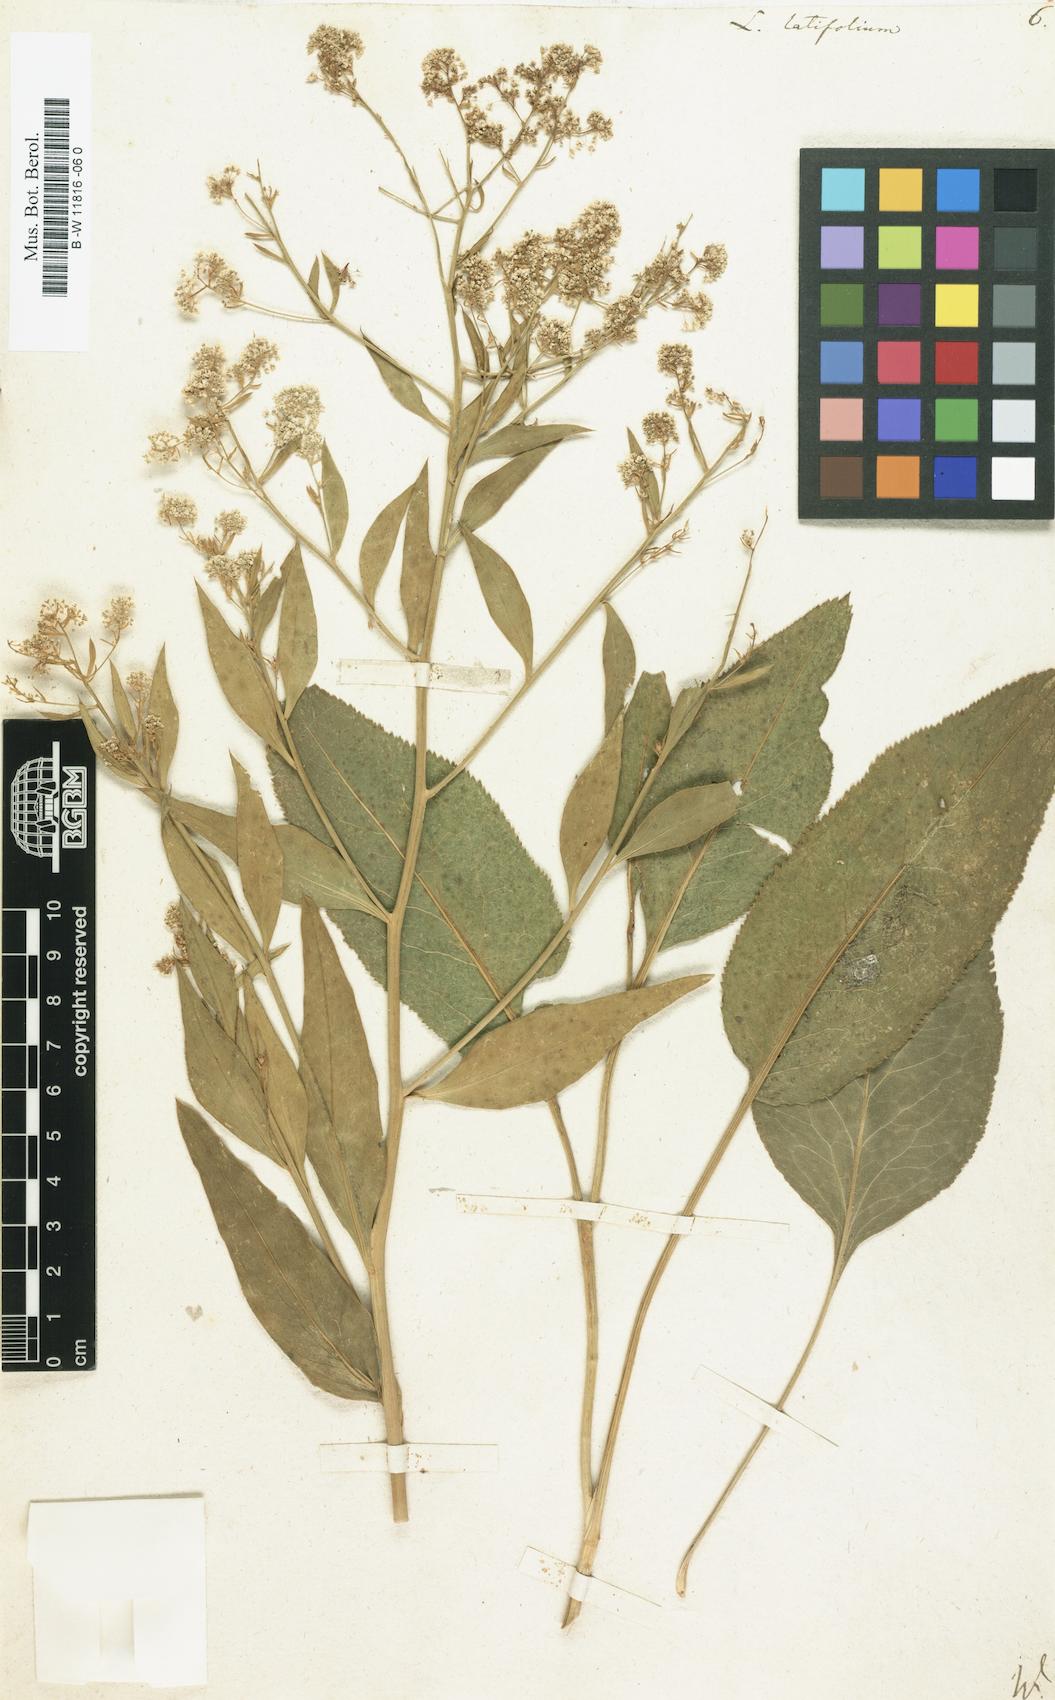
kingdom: Plantae
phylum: Tracheophyta
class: Magnoliopsida
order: Brassicales
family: Brassicaceae
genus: Lepidium
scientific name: Lepidium latifolium
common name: Dittander
